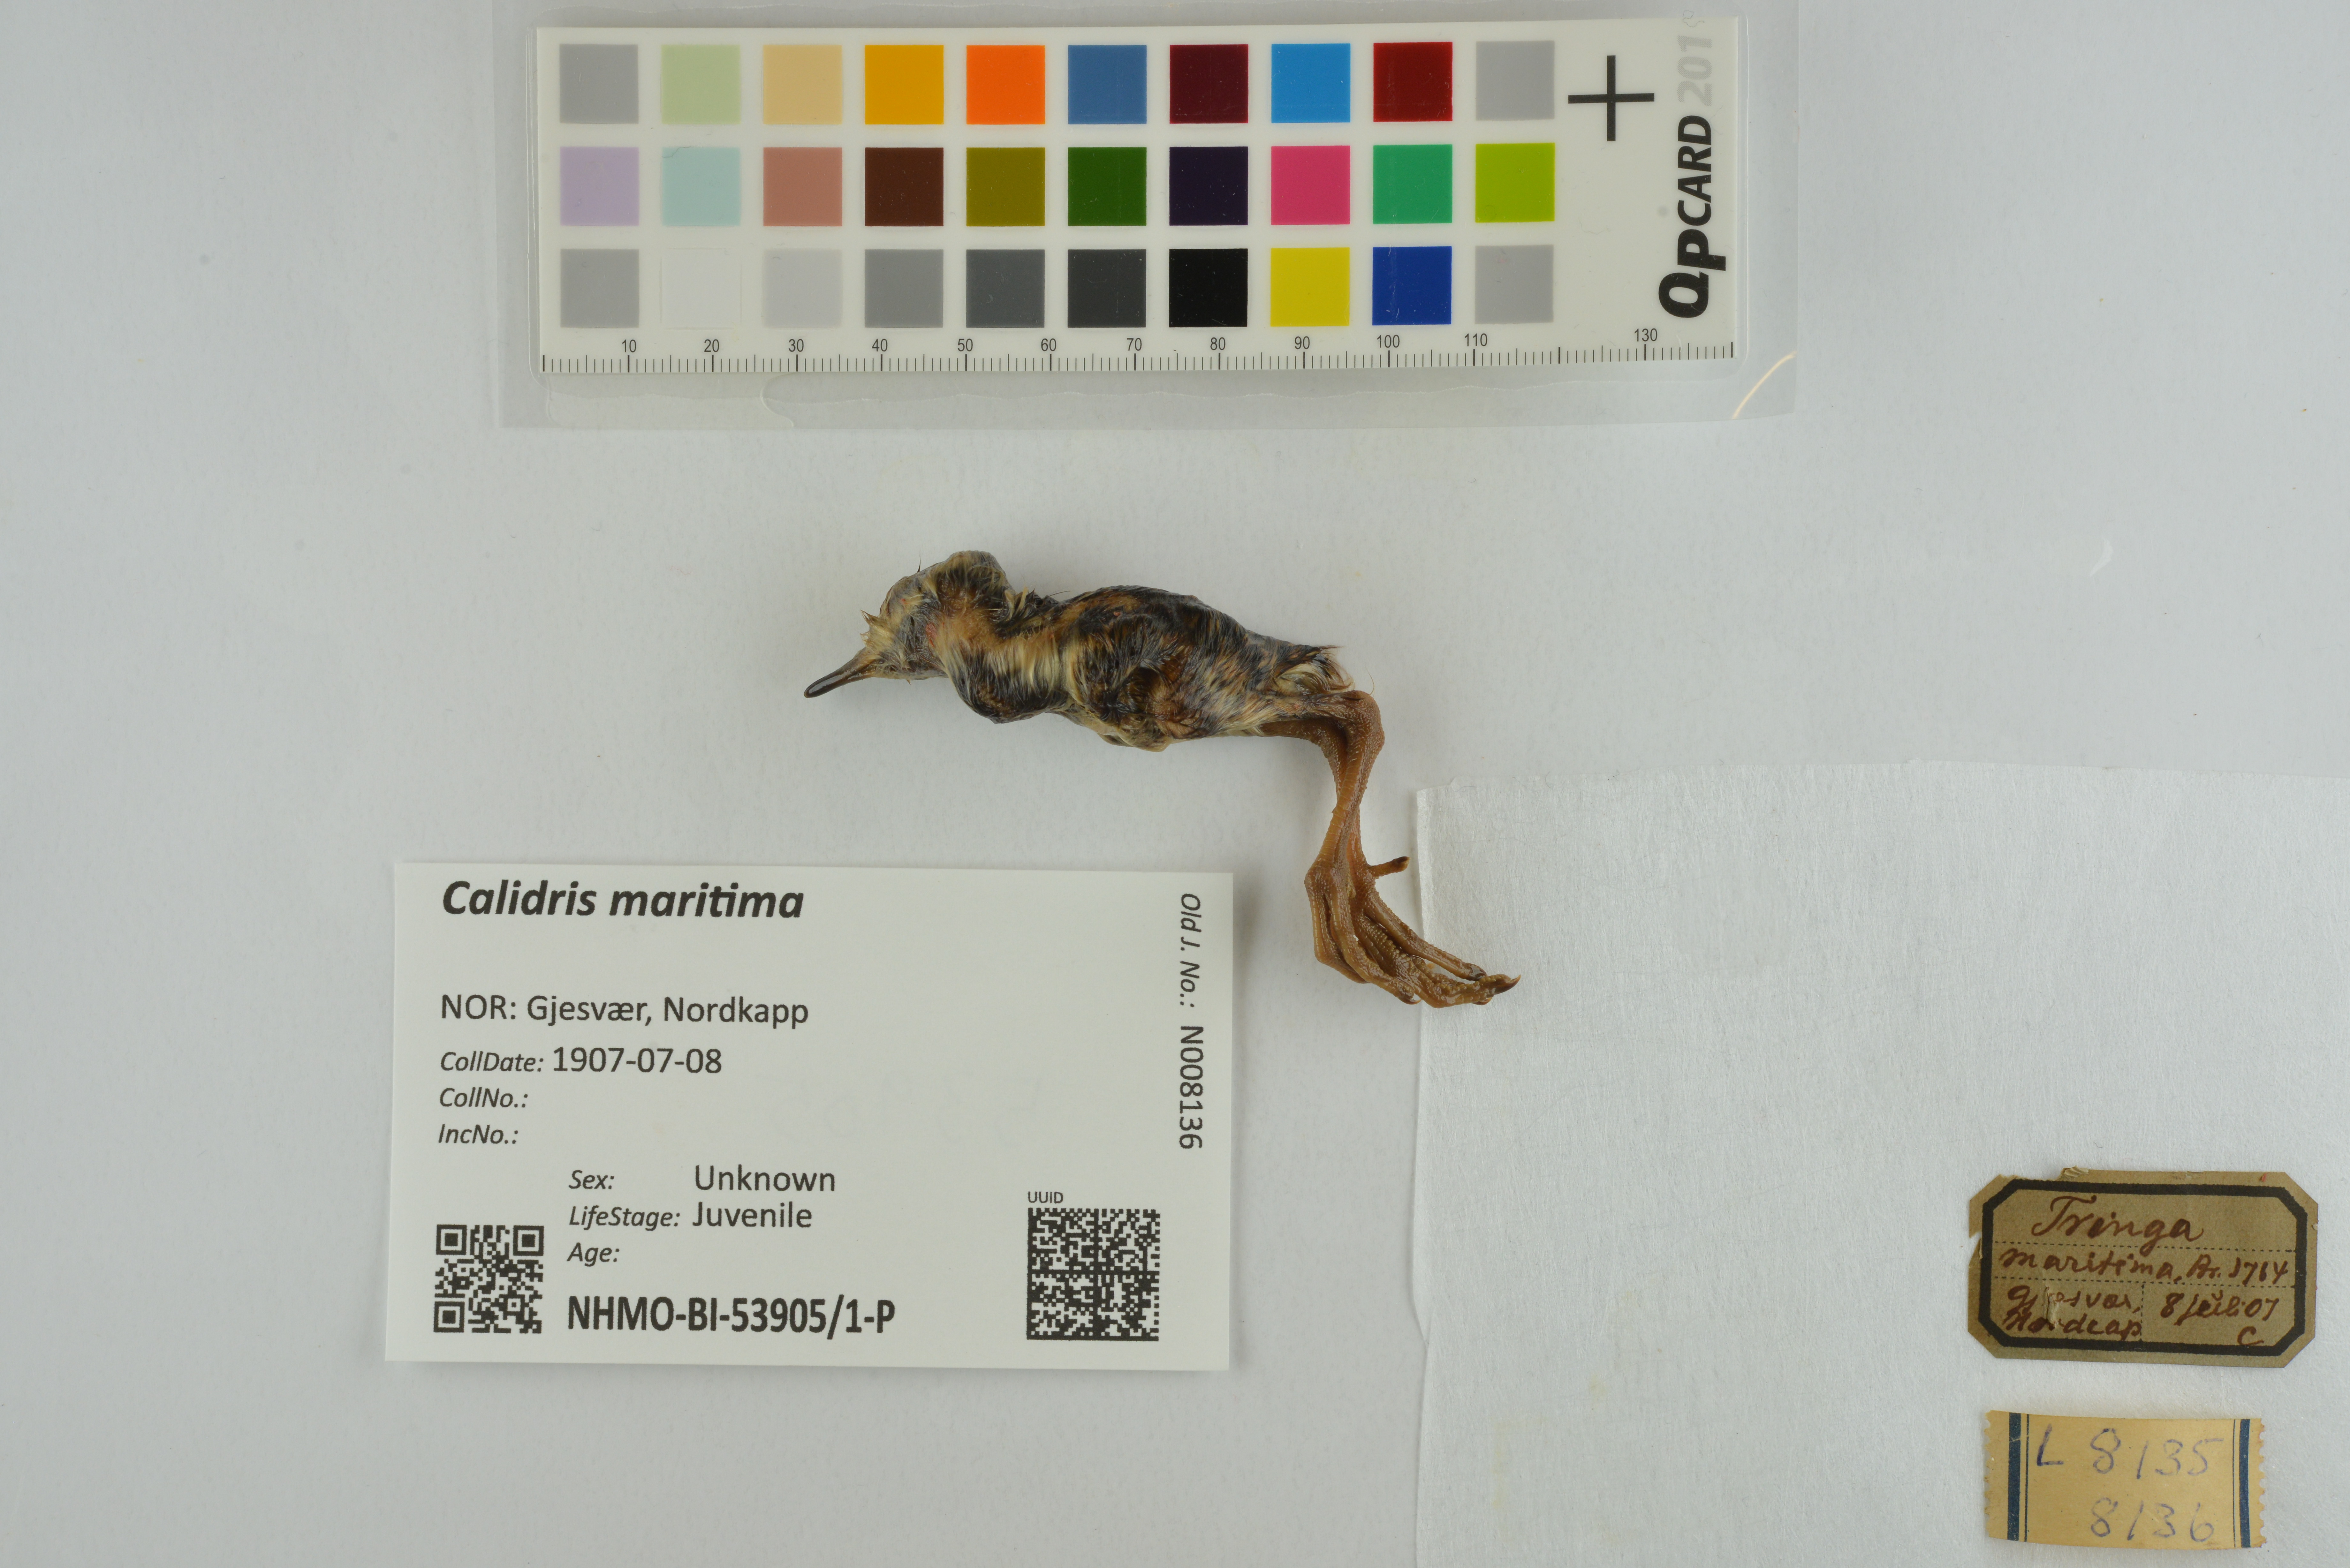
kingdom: Animalia
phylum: Chordata
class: Aves
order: Charadriiformes
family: Scolopacidae
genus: Calidris
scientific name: Calidris maritima
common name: Purple sandpiper
